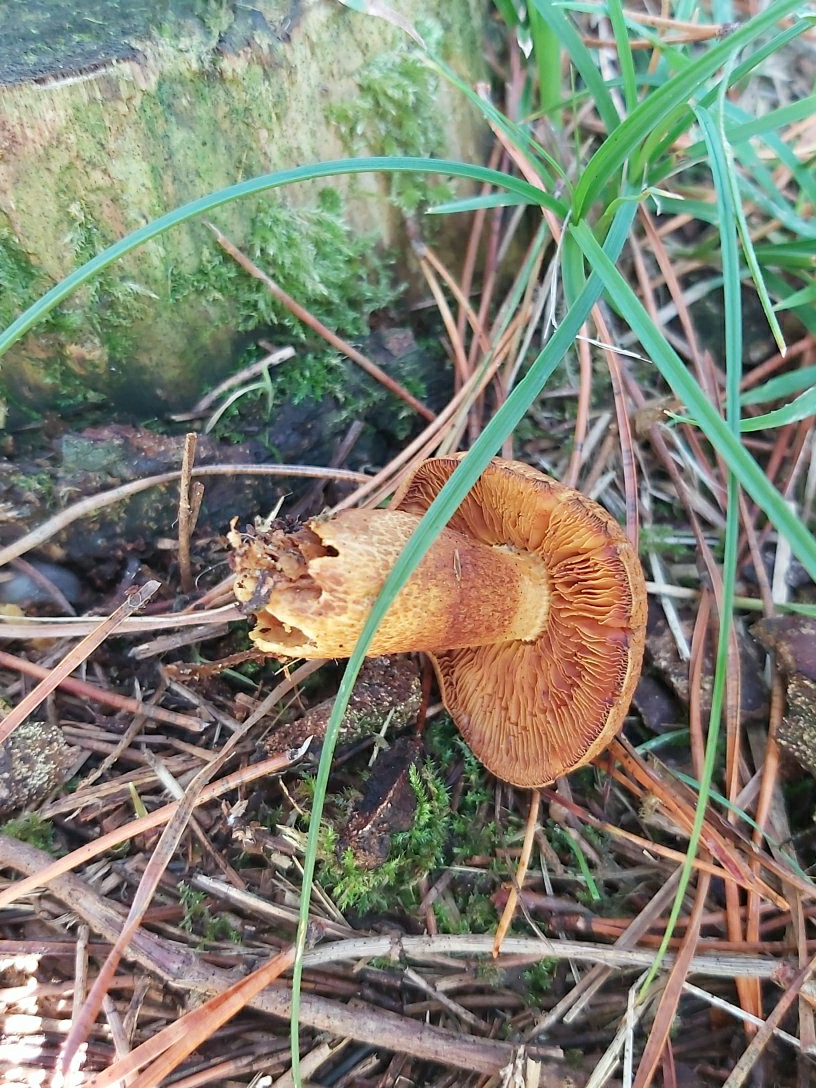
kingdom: Fungi
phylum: Basidiomycota
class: Agaricomycetes
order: Agaricales
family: Hymenogastraceae
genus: Gymnopilus
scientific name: Gymnopilus spectabilis
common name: fibret flammehat
